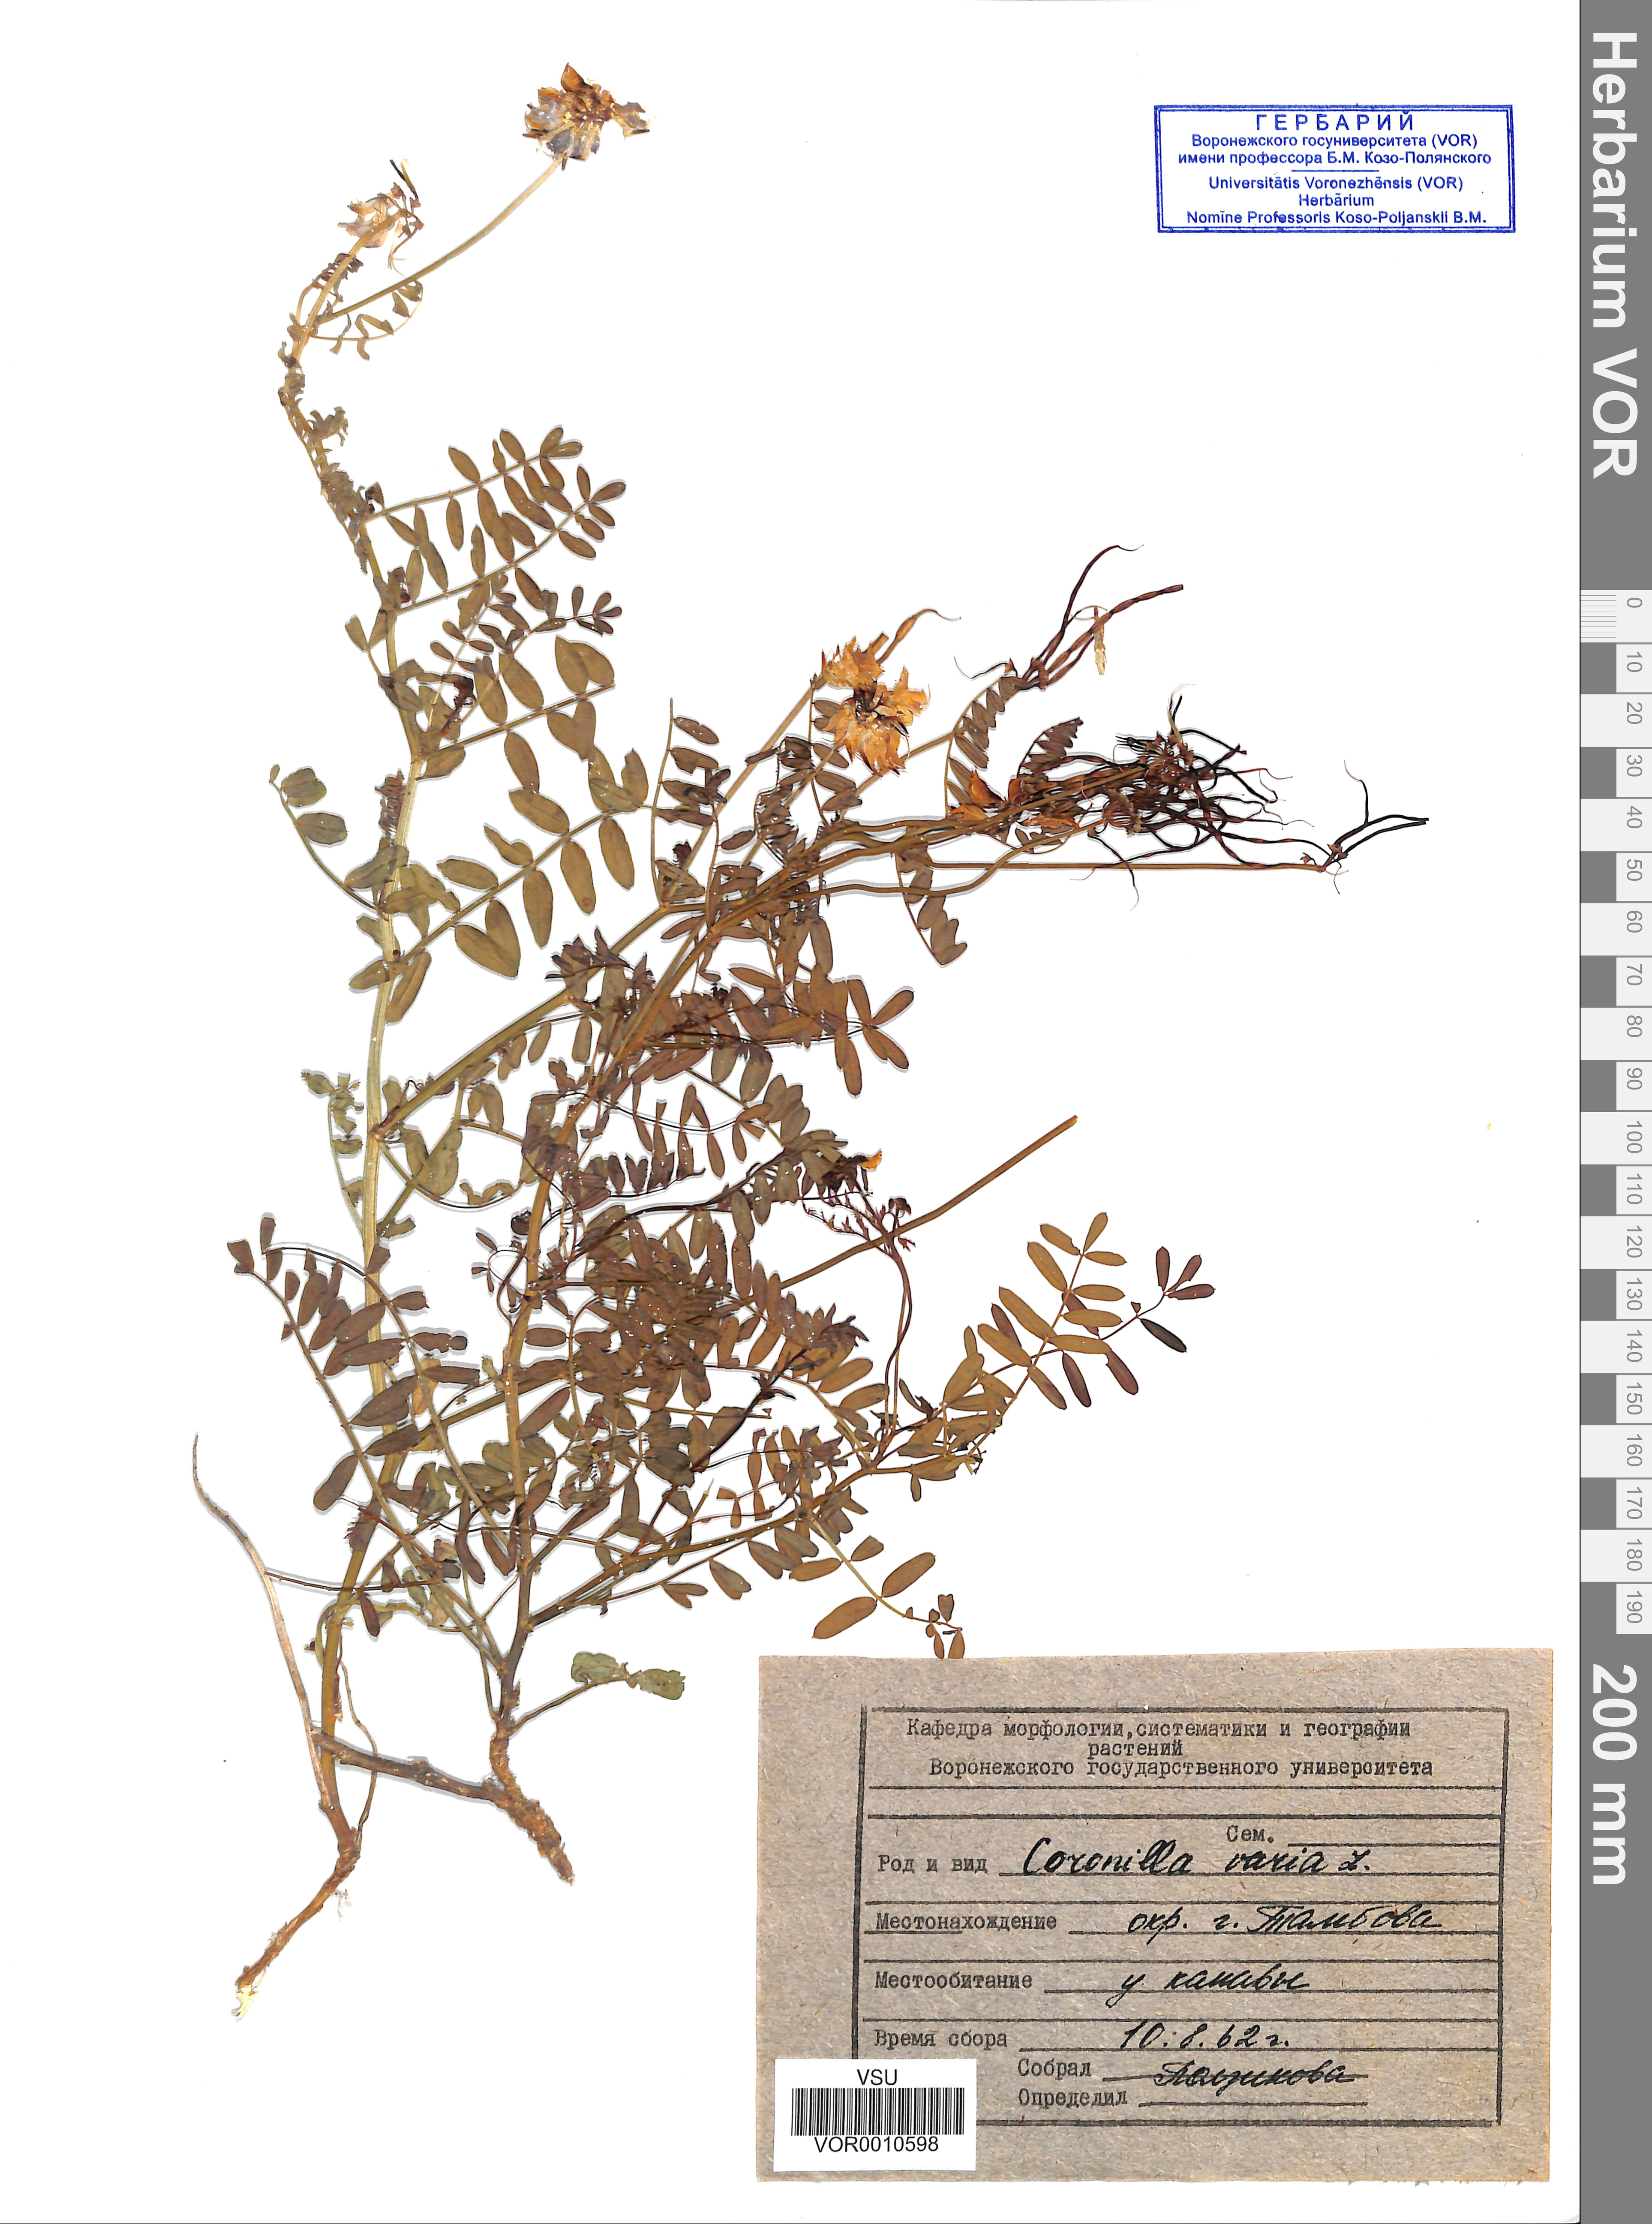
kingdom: Plantae
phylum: Tracheophyta
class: Magnoliopsida
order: Fabales
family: Fabaceae
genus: Coronilla
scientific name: Coronilla varia
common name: Crownvetch
